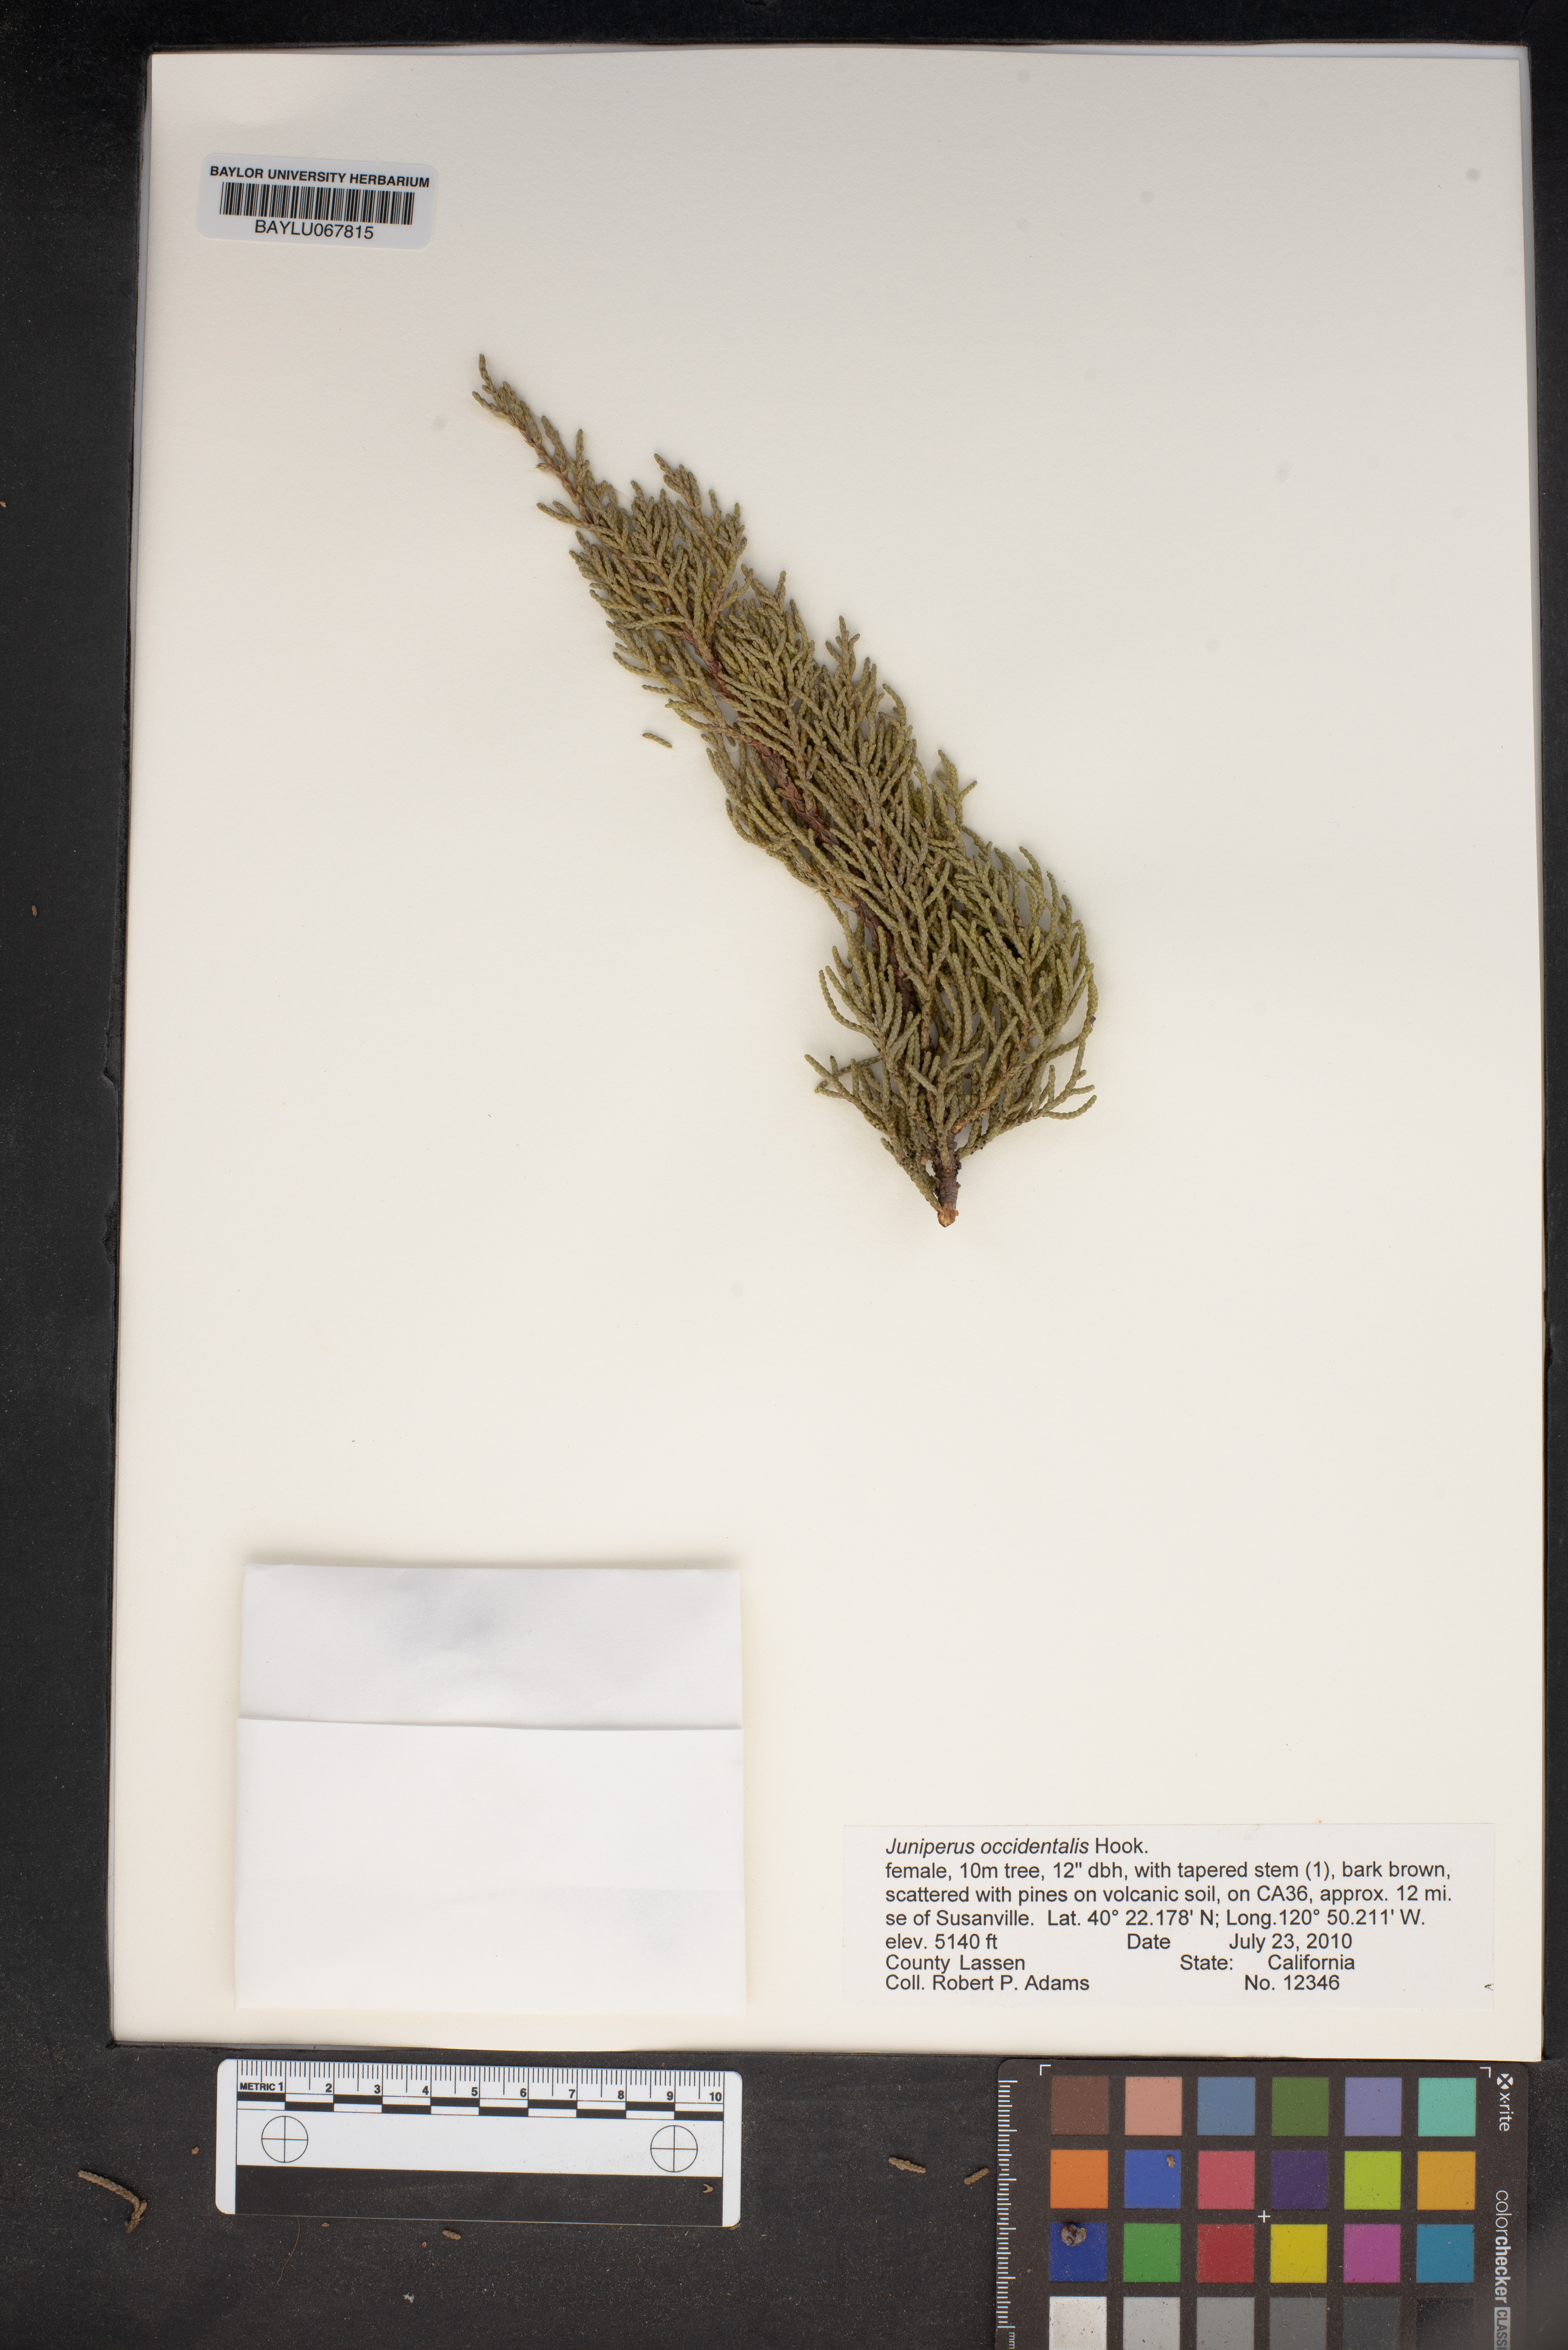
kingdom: Plantae
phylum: Tracheophyta
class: Pinopsida
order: Pinales
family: Cupressaceae
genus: Juniperus
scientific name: Juniperus occidentalis
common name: Western juniper
